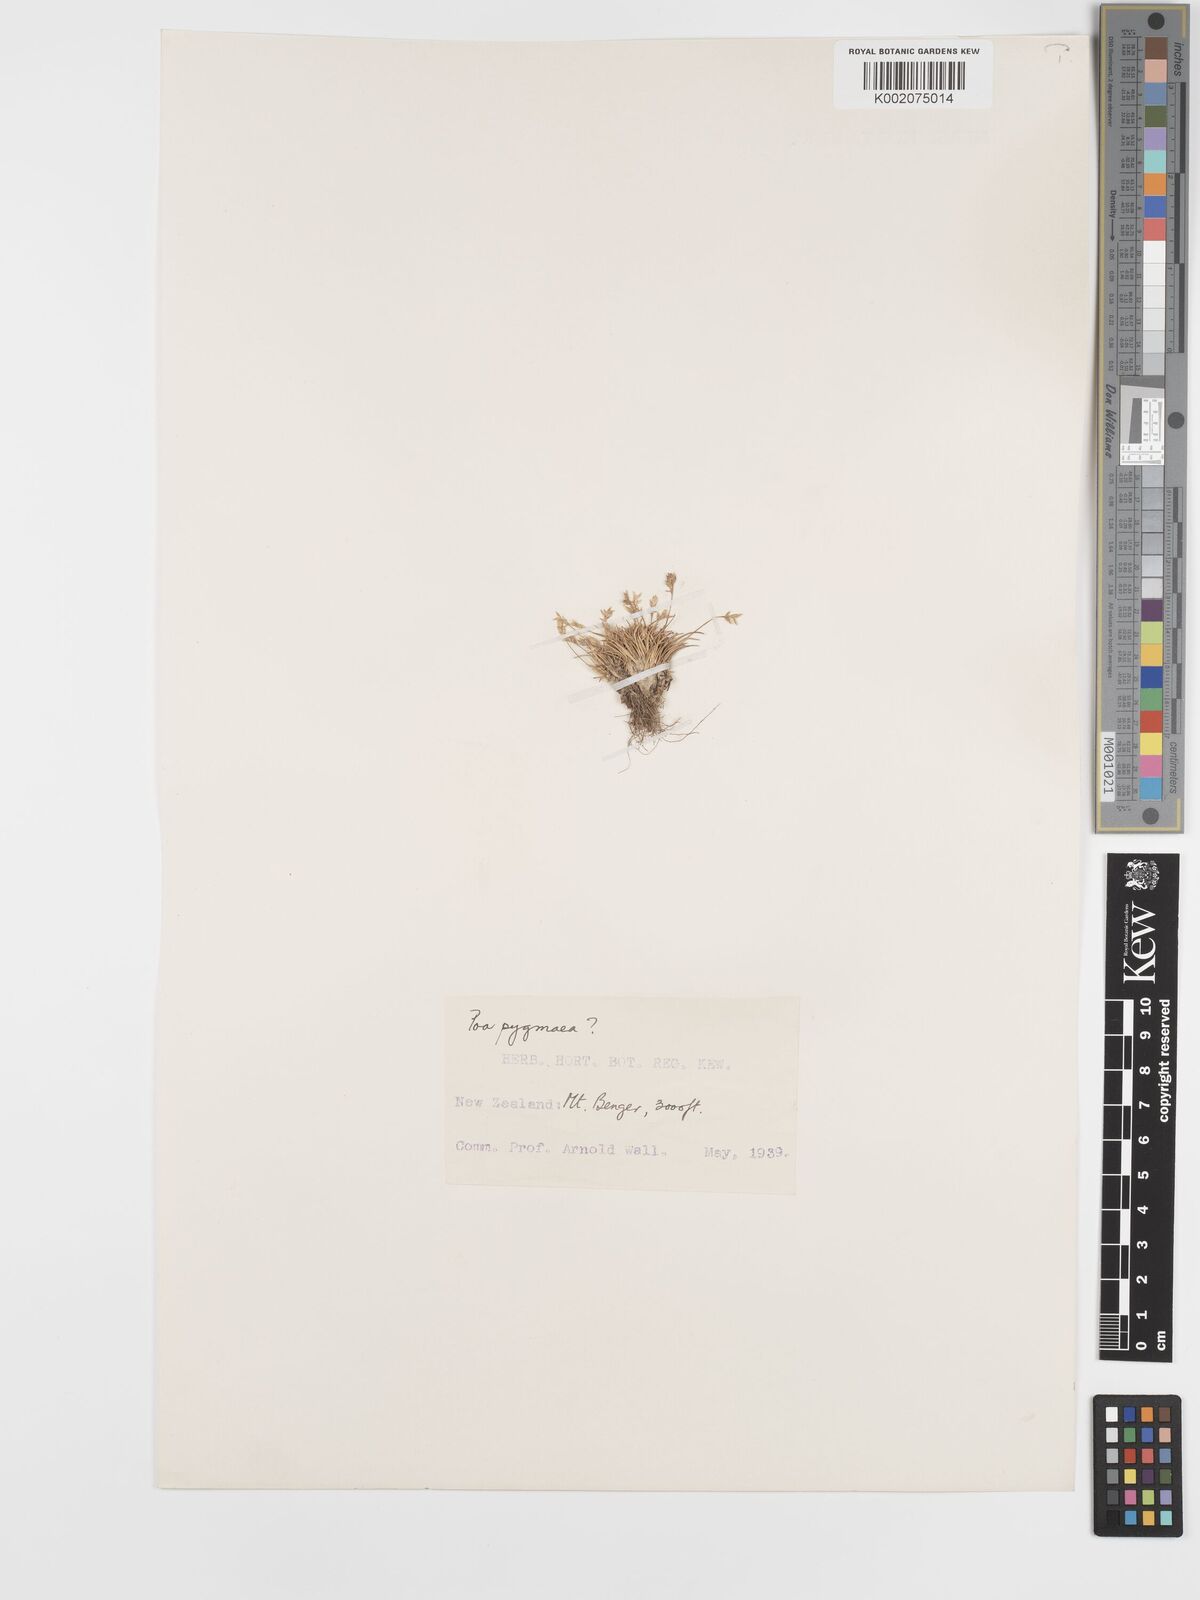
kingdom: Plantae
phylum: Tracheophyta
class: Liliopsida
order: Poales
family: Poaceae
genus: Poa
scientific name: Poa pygmaea
